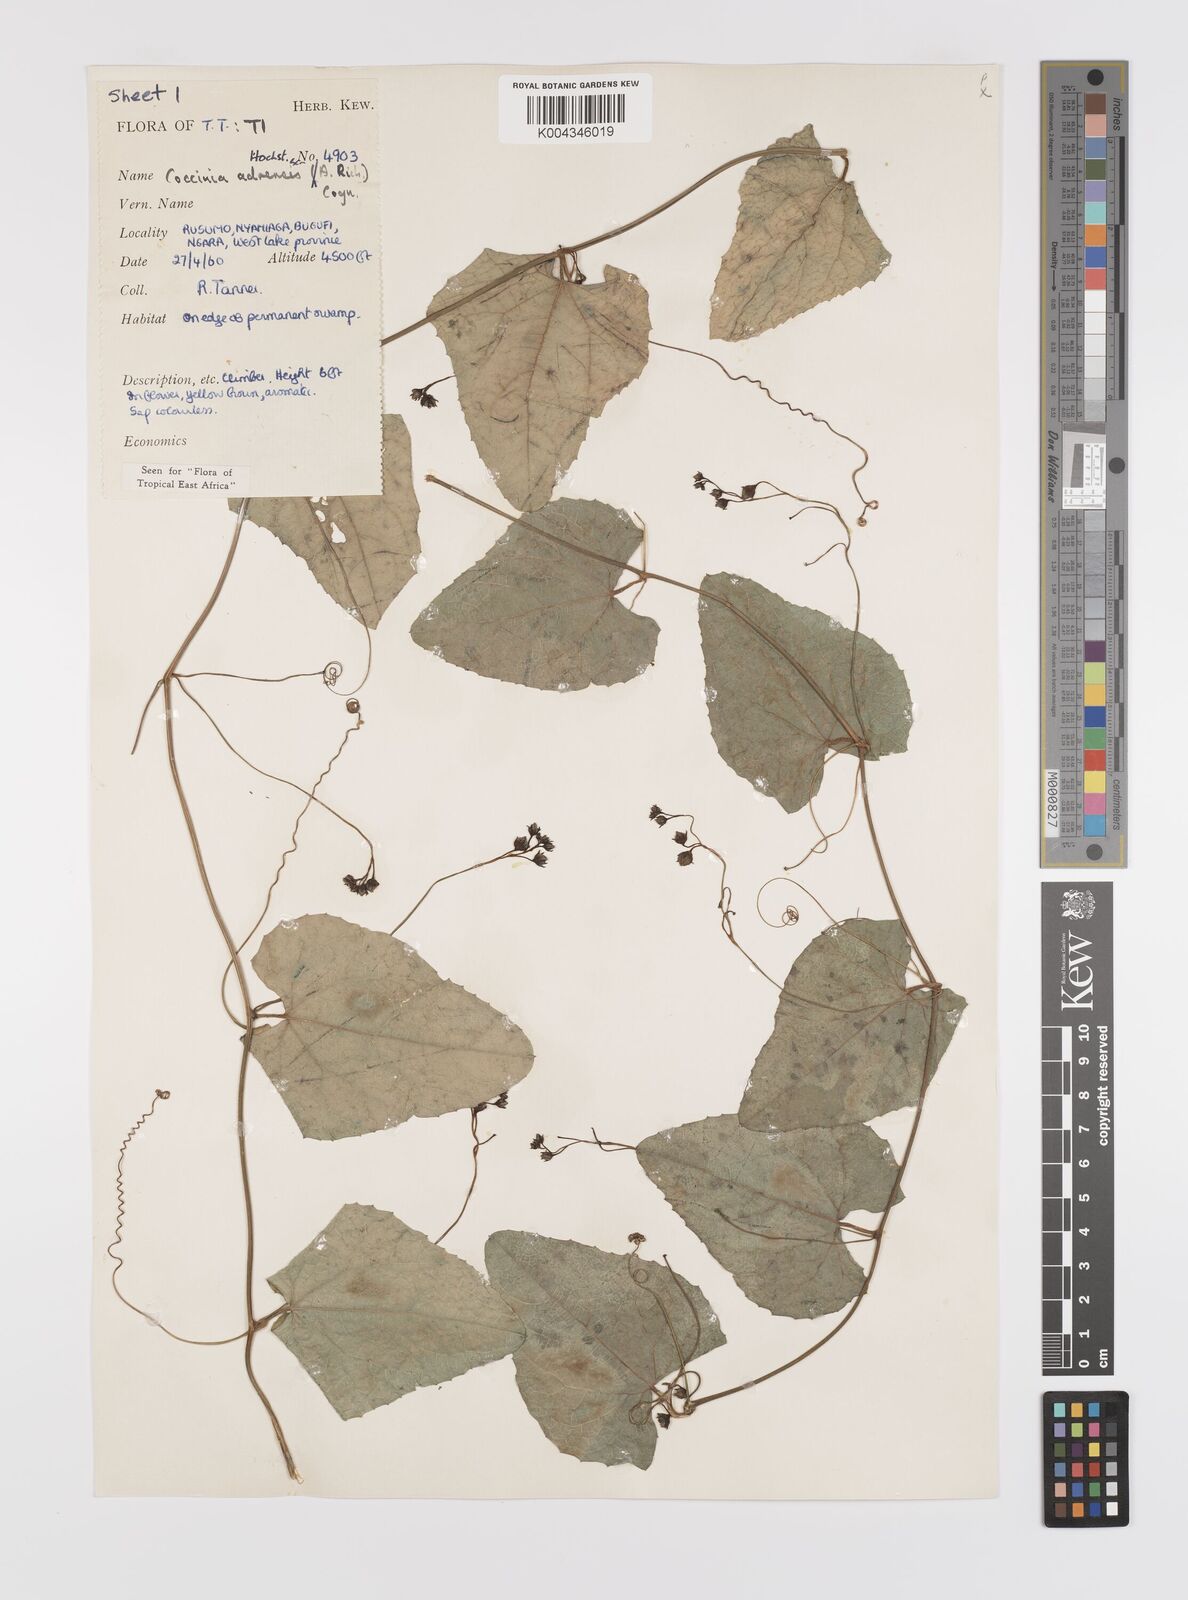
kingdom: Plantae
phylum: Tracheophyta
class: Magnoliopsida
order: Cucurbitales
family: Cucurbitaceae
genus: Coccinia
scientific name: Coccinia adoensis
